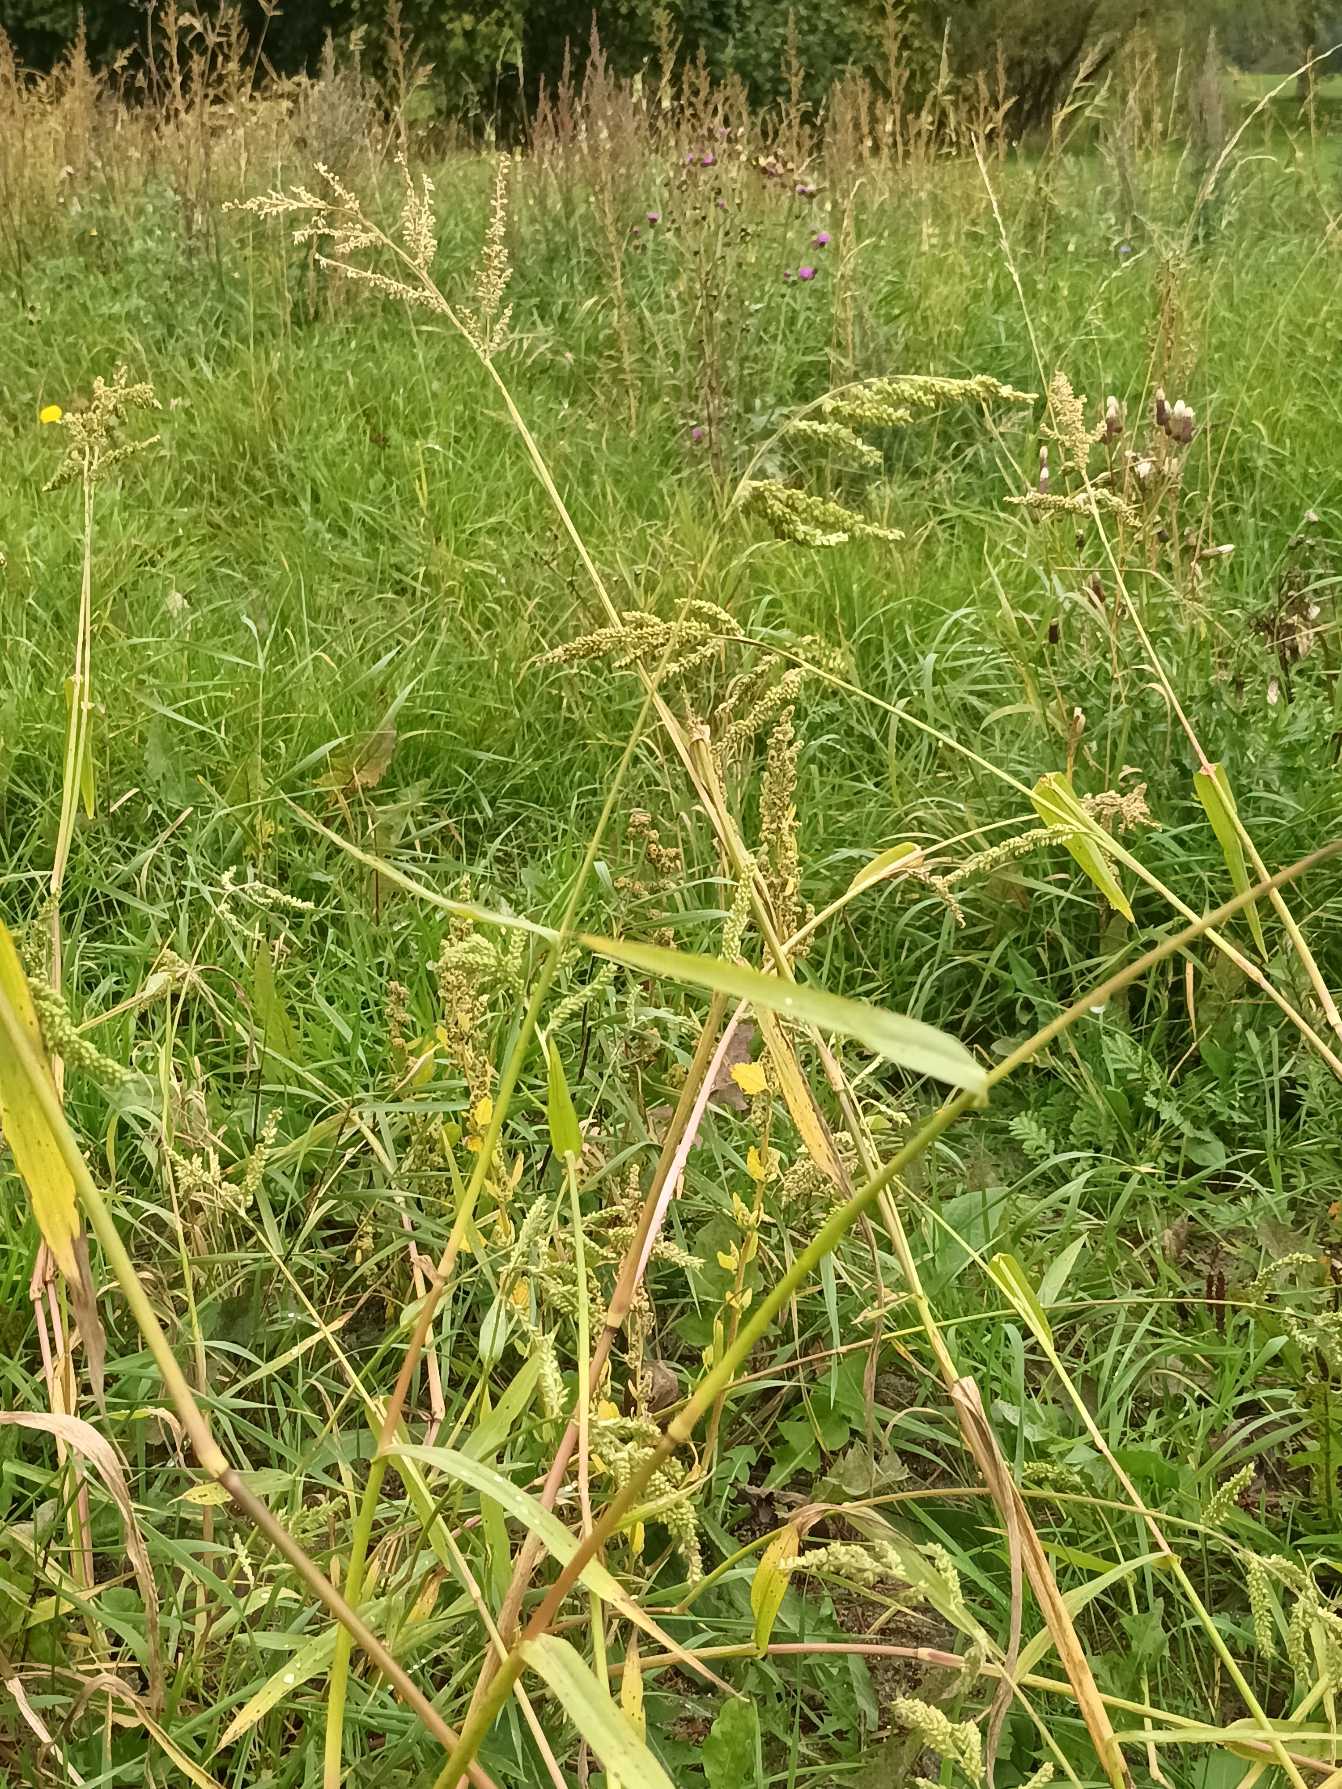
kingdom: Plantae
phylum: Tracheophyta
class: Liliopsida
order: Poales
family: Poaceae
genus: Echinochloa
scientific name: Echinochloa crus-galli
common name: Almindelig hanespore
